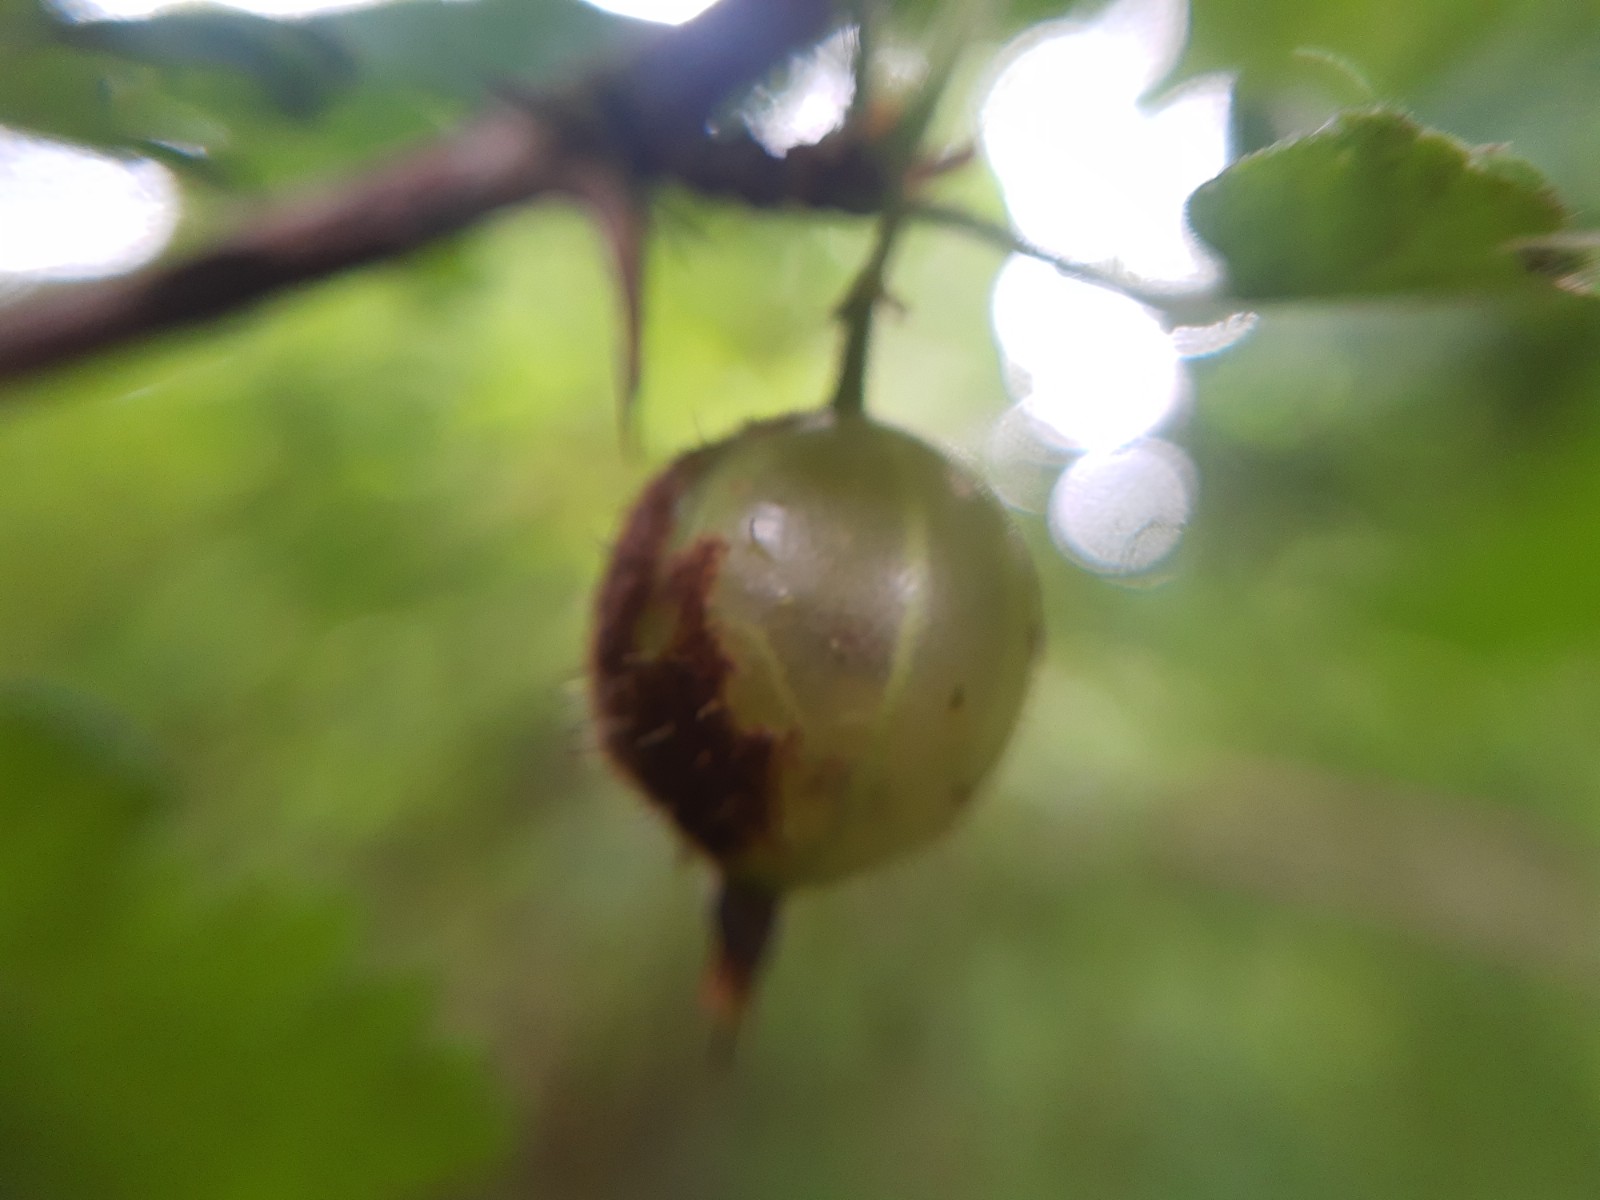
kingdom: Fungi
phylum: Ascomycota
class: Leotiomycetes
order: Helotiales
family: Erysiphaceae
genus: Podosphaera
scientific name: Podosphaera mors-uvae
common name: American gooseberry mildew
